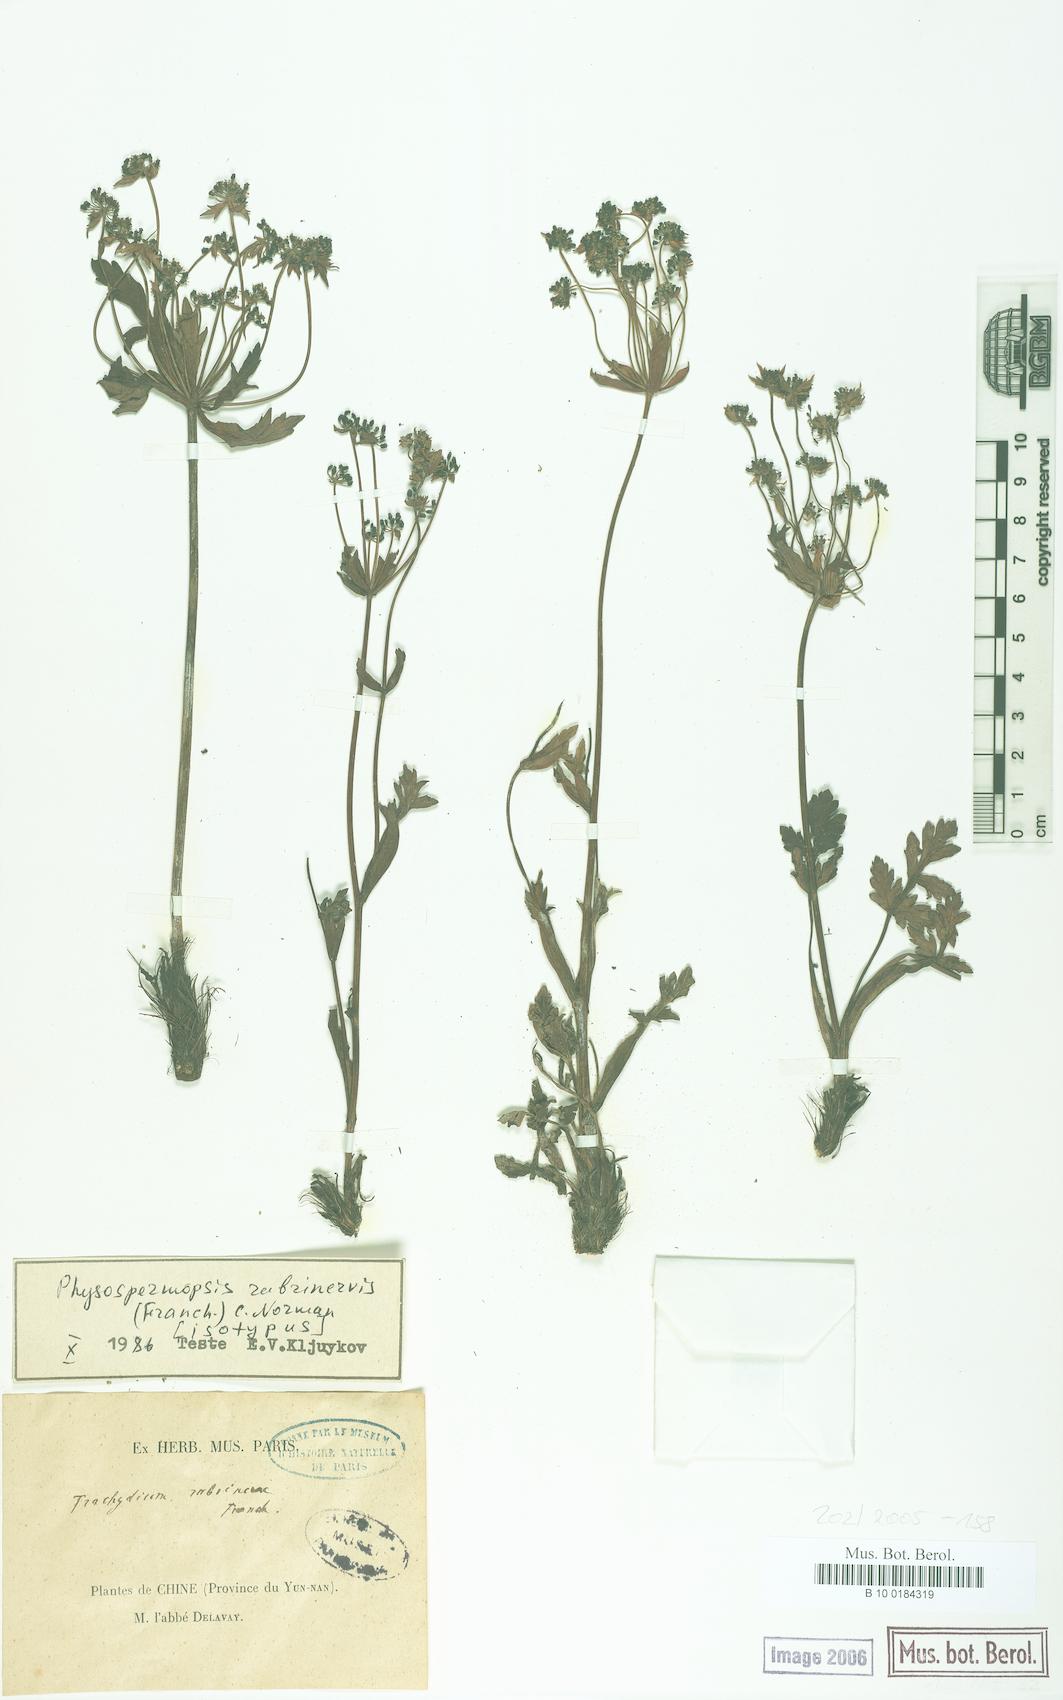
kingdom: Plantae
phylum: Tracheophyta
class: Magnoliopsida
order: Apiales
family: Apiaceae
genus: Physospermopsis
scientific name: Physospermopsis rubrinervis
